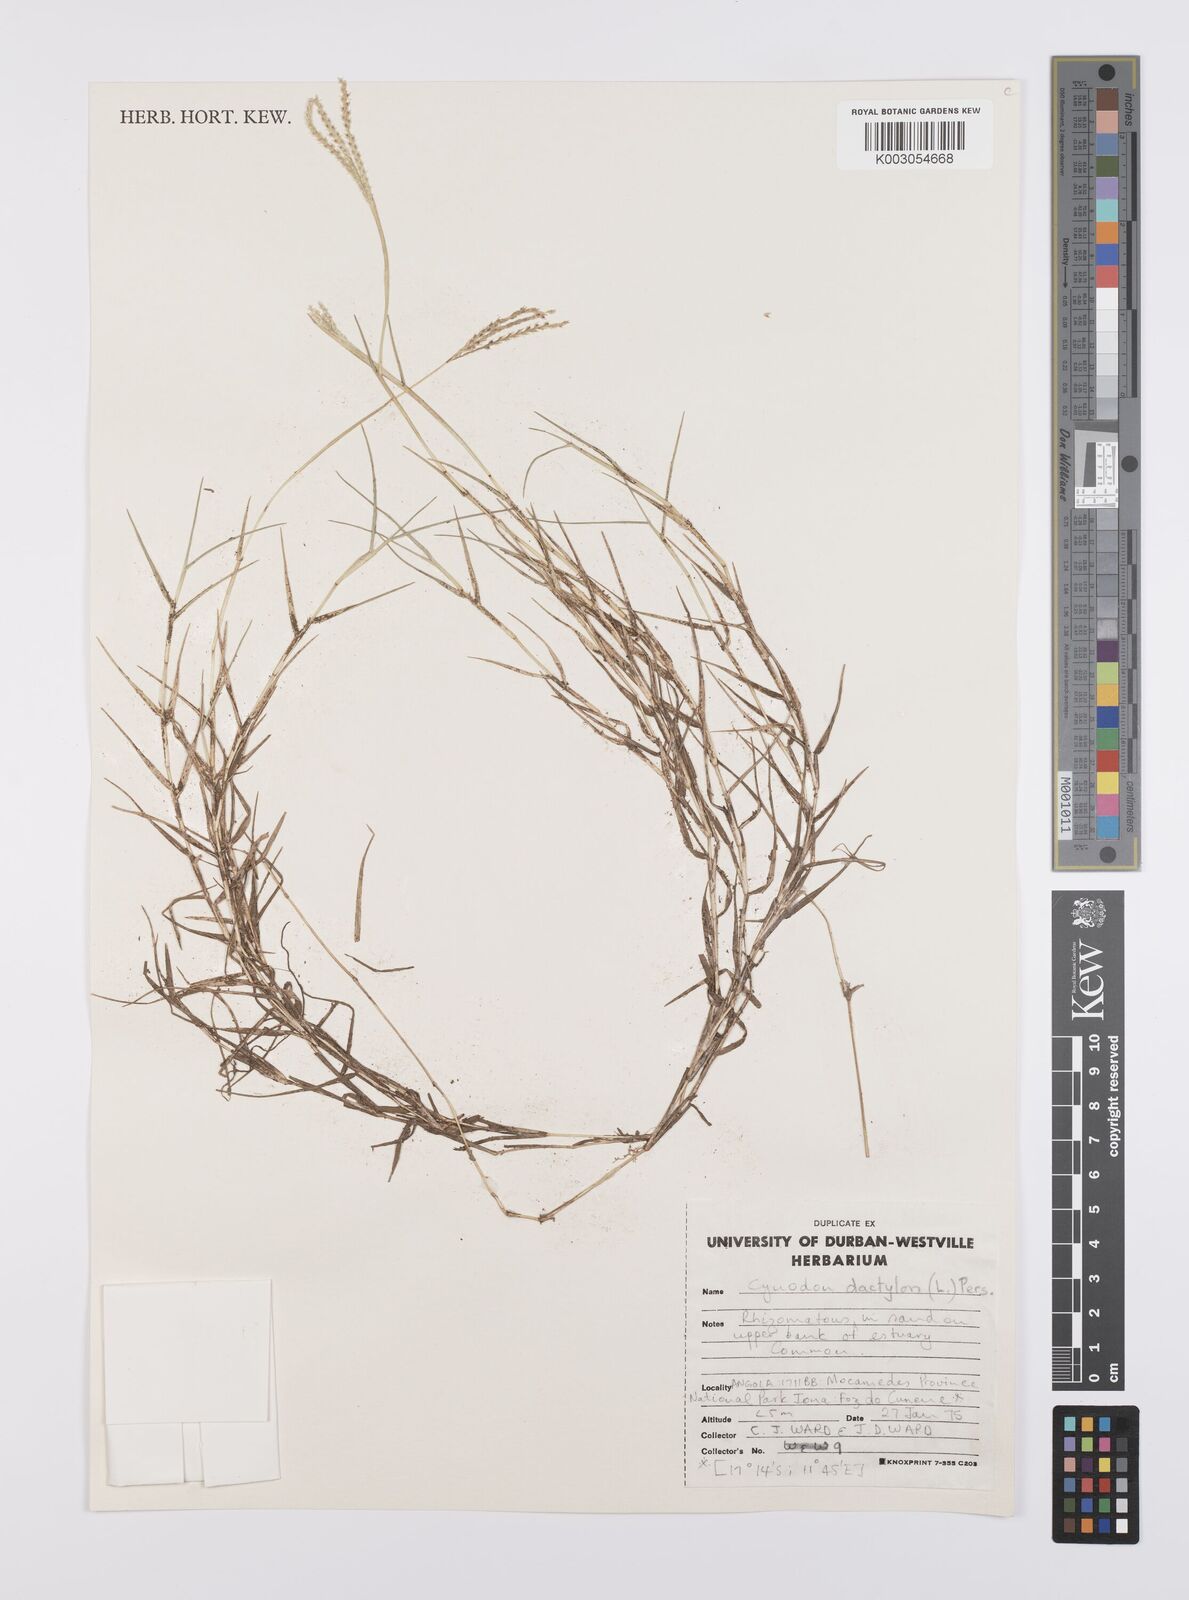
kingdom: Plantae
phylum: Tracheophyta
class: Liliopsida
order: Poales
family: Poaceae
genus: Cynodon
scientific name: Cynodon dactylon
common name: Bermuda grass
